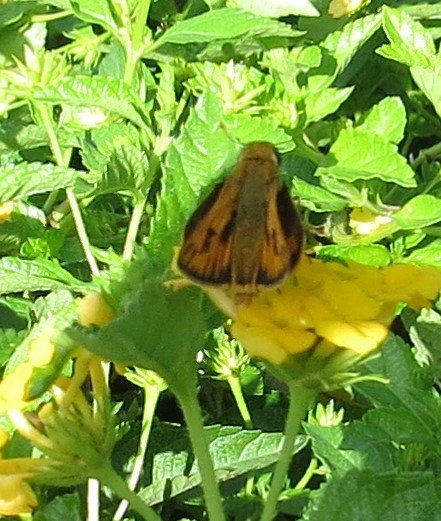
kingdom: Animalia
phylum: Arthropoda
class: Insecta
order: Lepidoptera
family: Hesperiidae
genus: Polites
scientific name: Polites vibex
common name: Whirlabout
